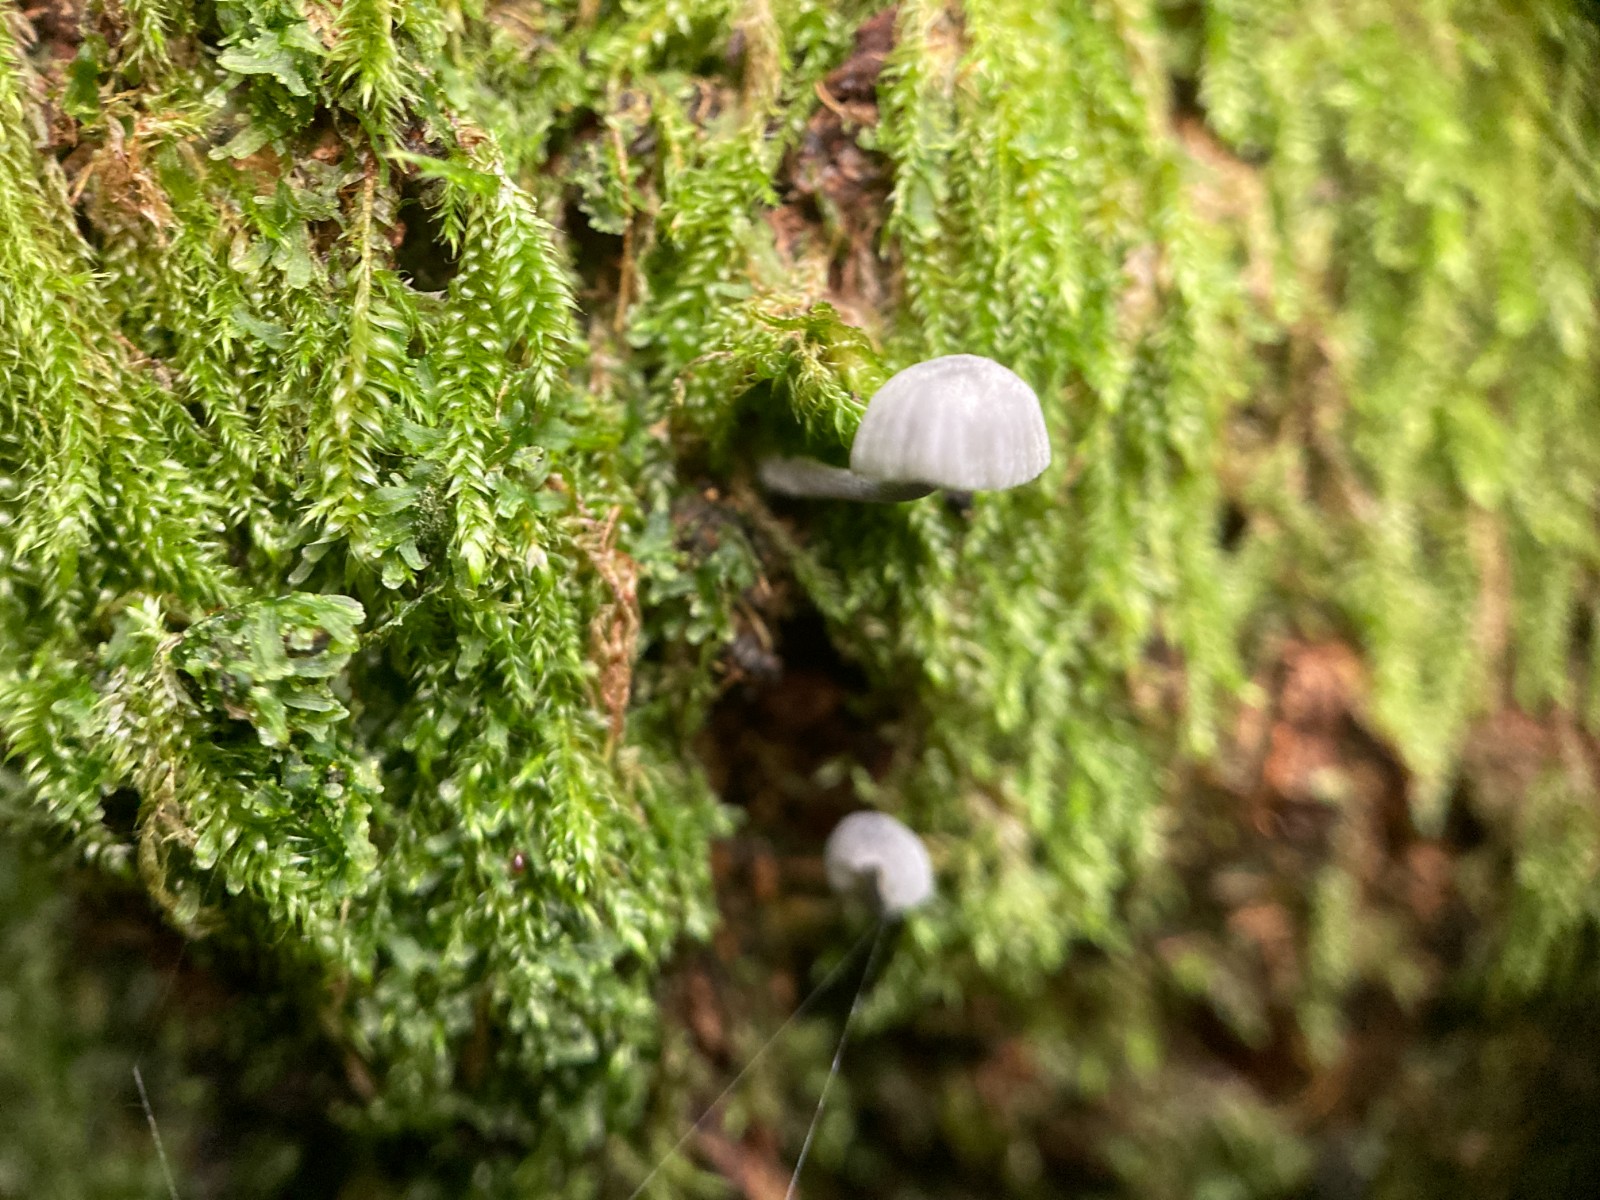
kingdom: Fungi
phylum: Basidiomycota
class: Agaricomycetes
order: Agaricales
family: Mycenaceae
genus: Mycena
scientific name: Mycena pseudocorticola
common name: gråblå bark-huesvamp
